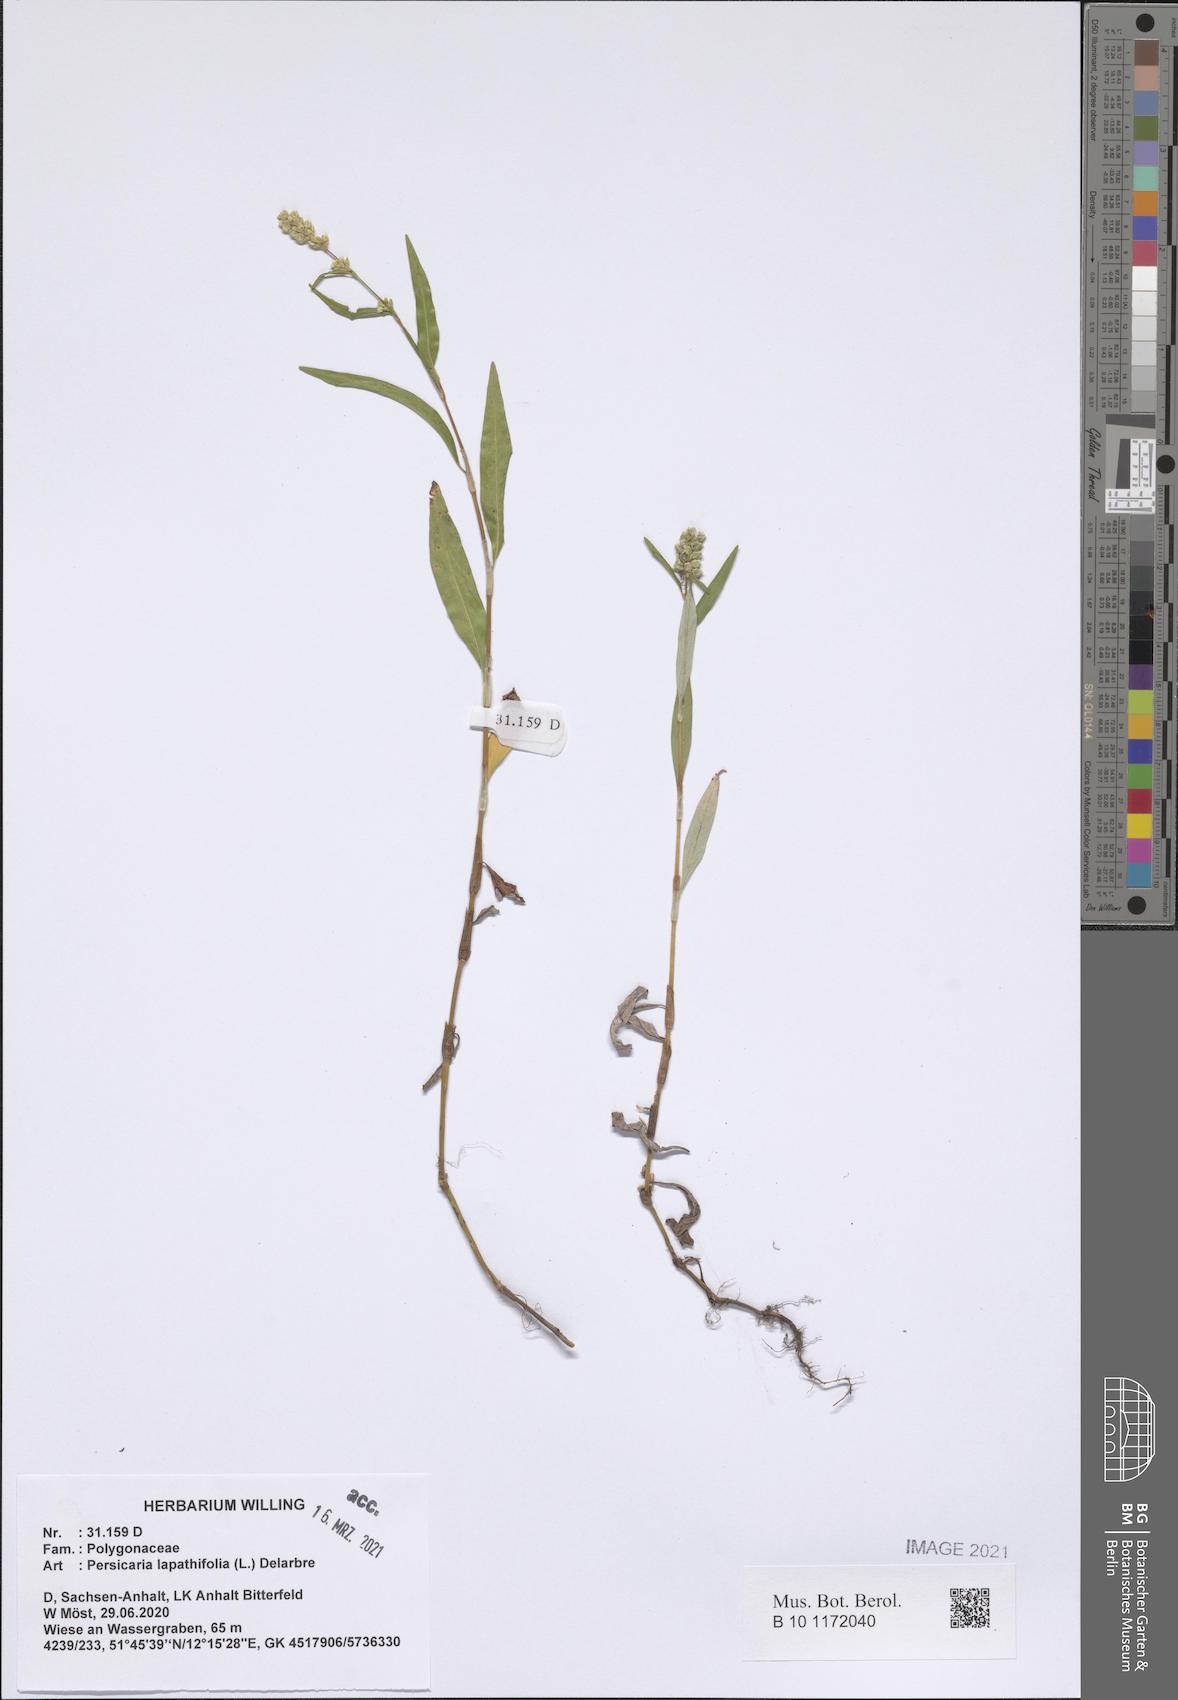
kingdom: Plantae
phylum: Tracheophyta
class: Magnoliopsida
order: Caryophyllales
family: Polygonaceae
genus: Persicaria
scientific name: Persicaria lapathifolia
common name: Curlytop knotweed
